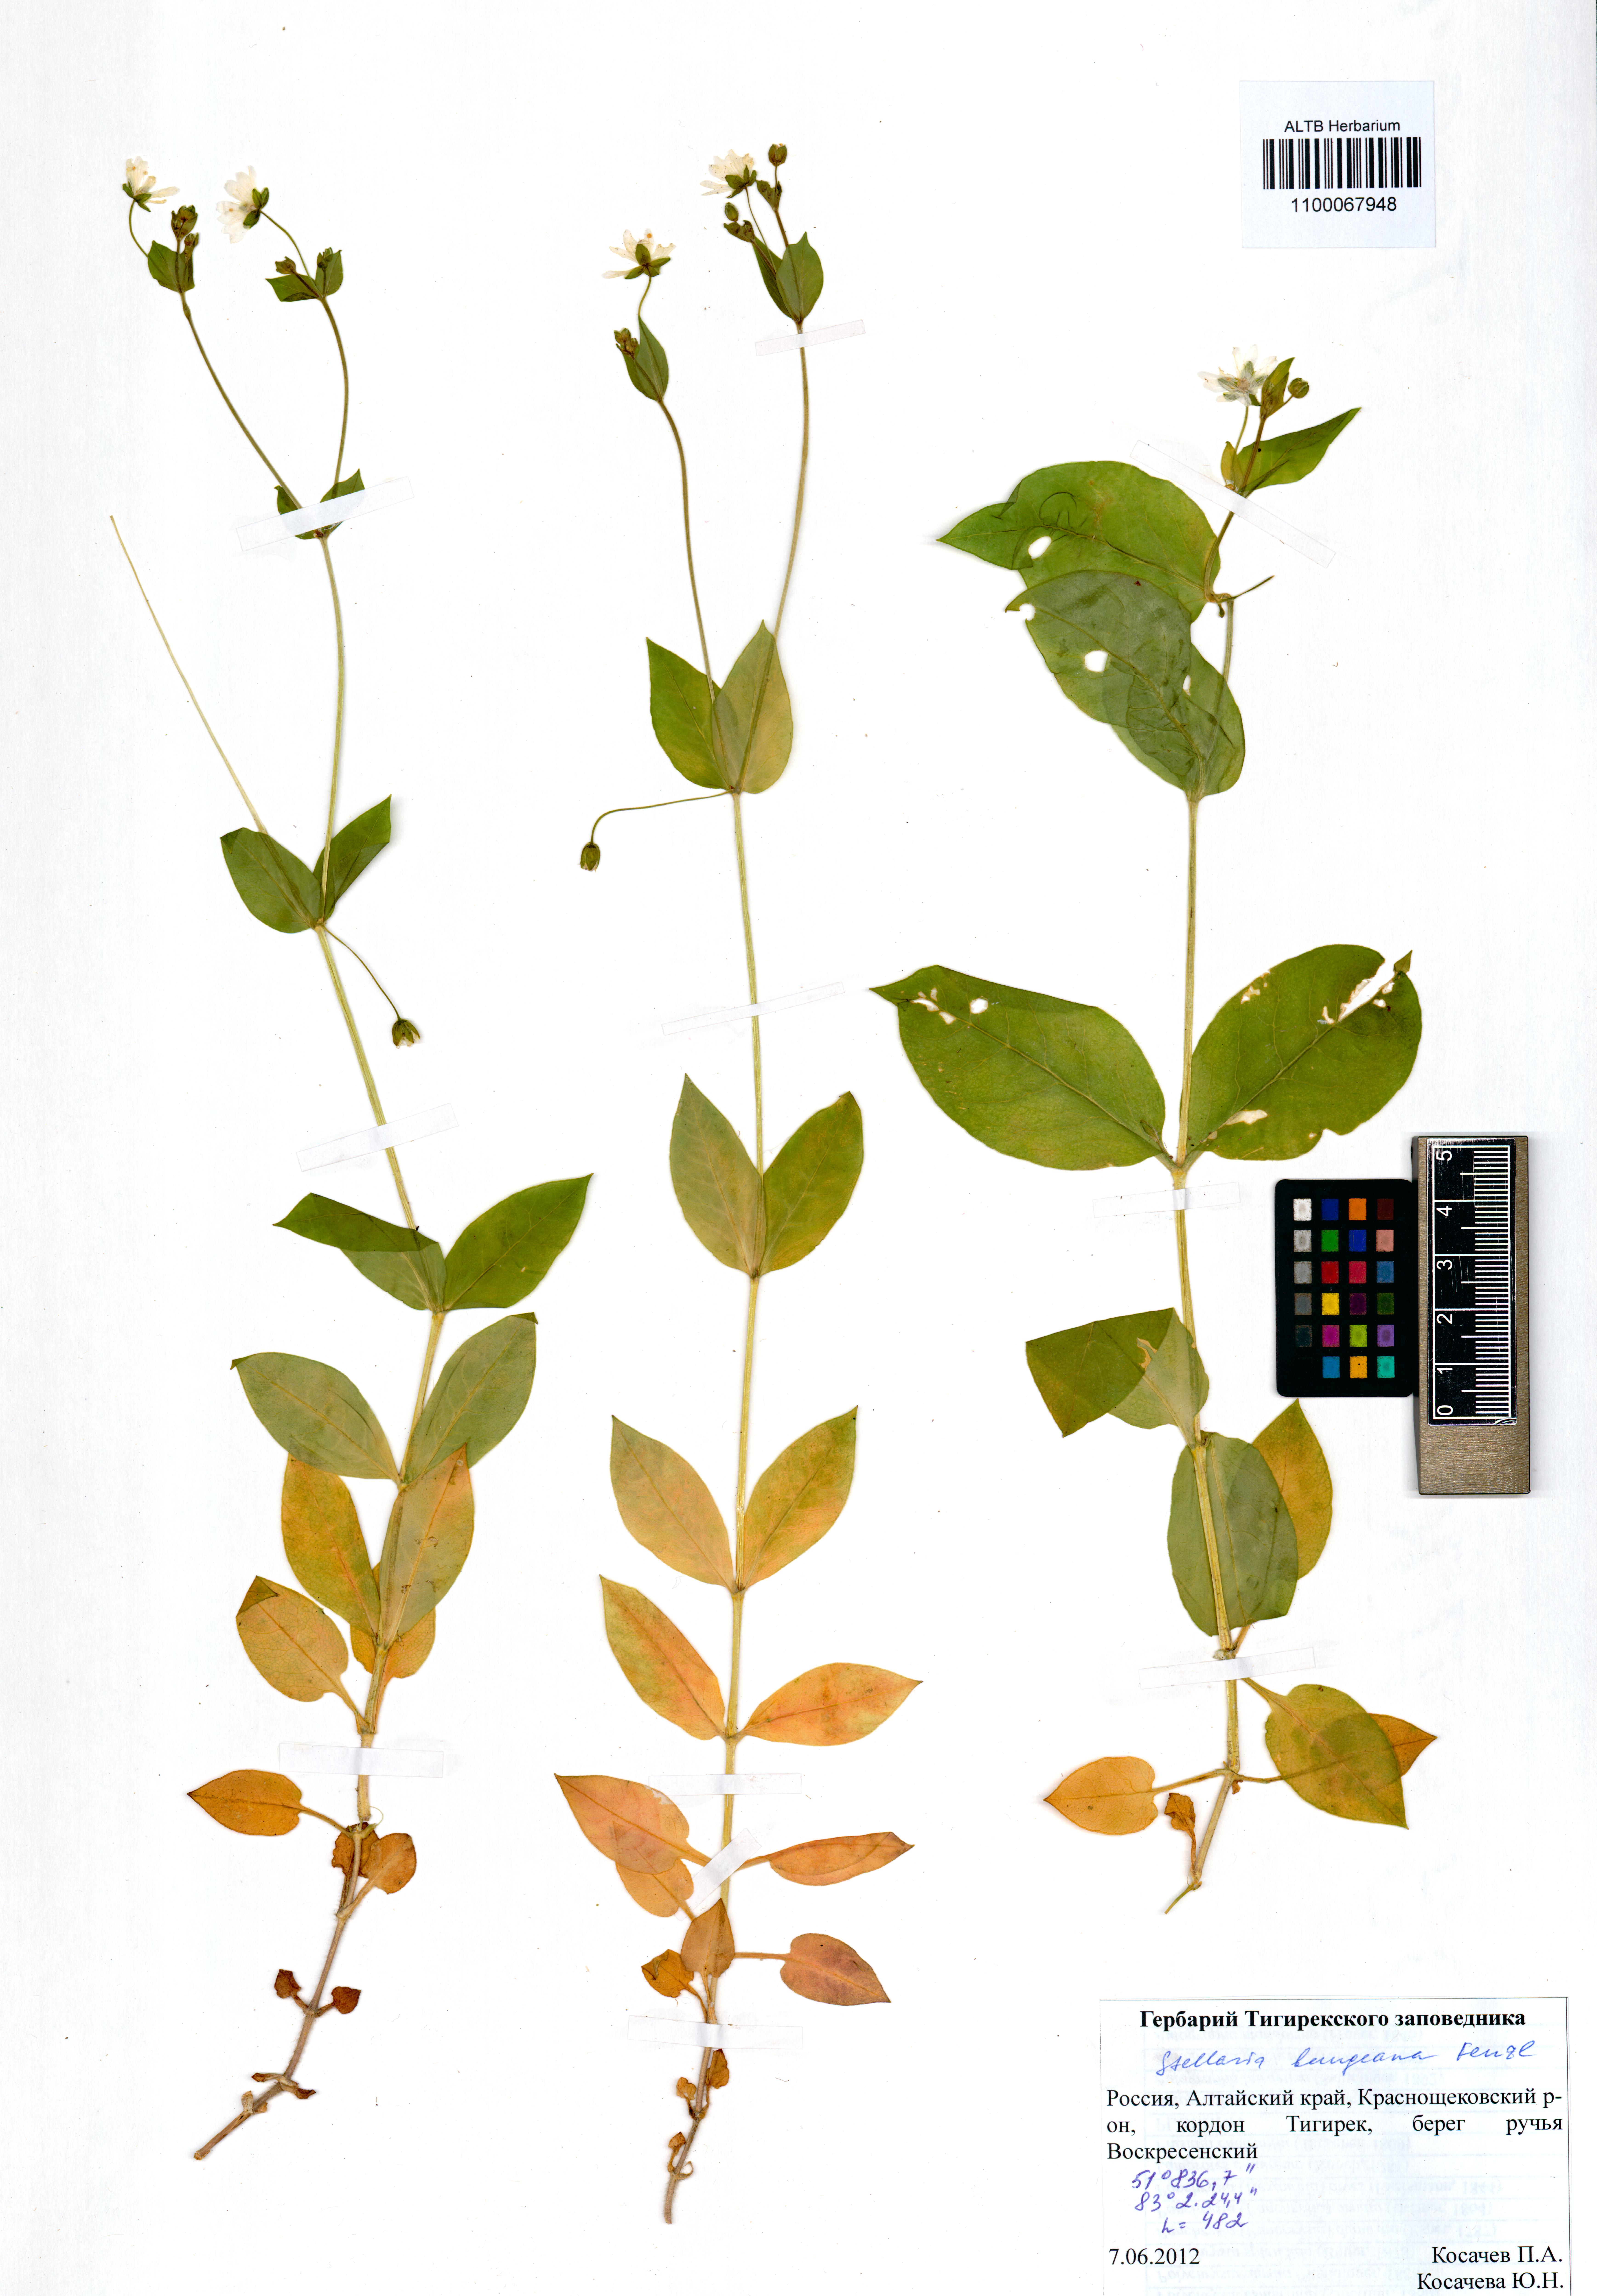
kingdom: Plantae
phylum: Tracheophyta
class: Magnoliopsida
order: Caryophyllales
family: Caryophyllaceae
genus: Stellaria
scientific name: Stellaria bungeana
